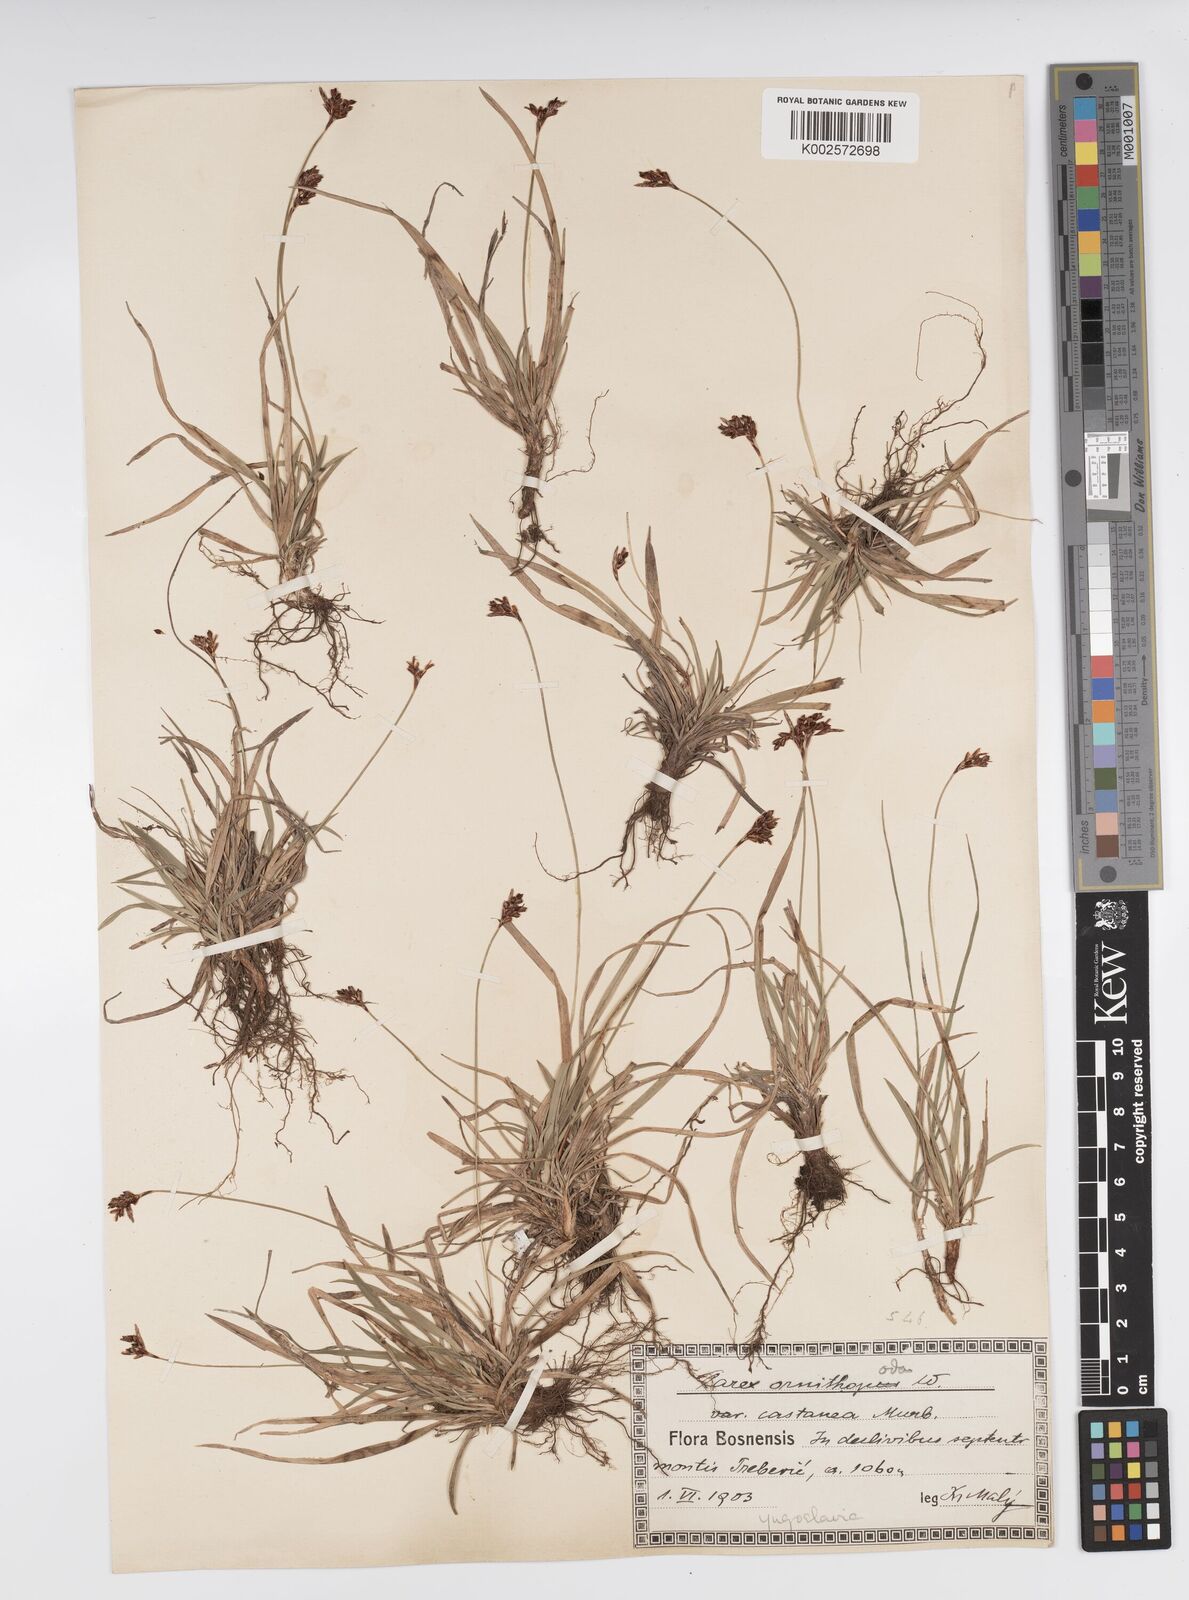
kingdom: Plantae
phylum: Tracheophyta
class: Liliopsida
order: Poales
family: Cyperaceae
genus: Carex
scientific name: Carex ornithopoda
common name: Bird's-foot sedge
